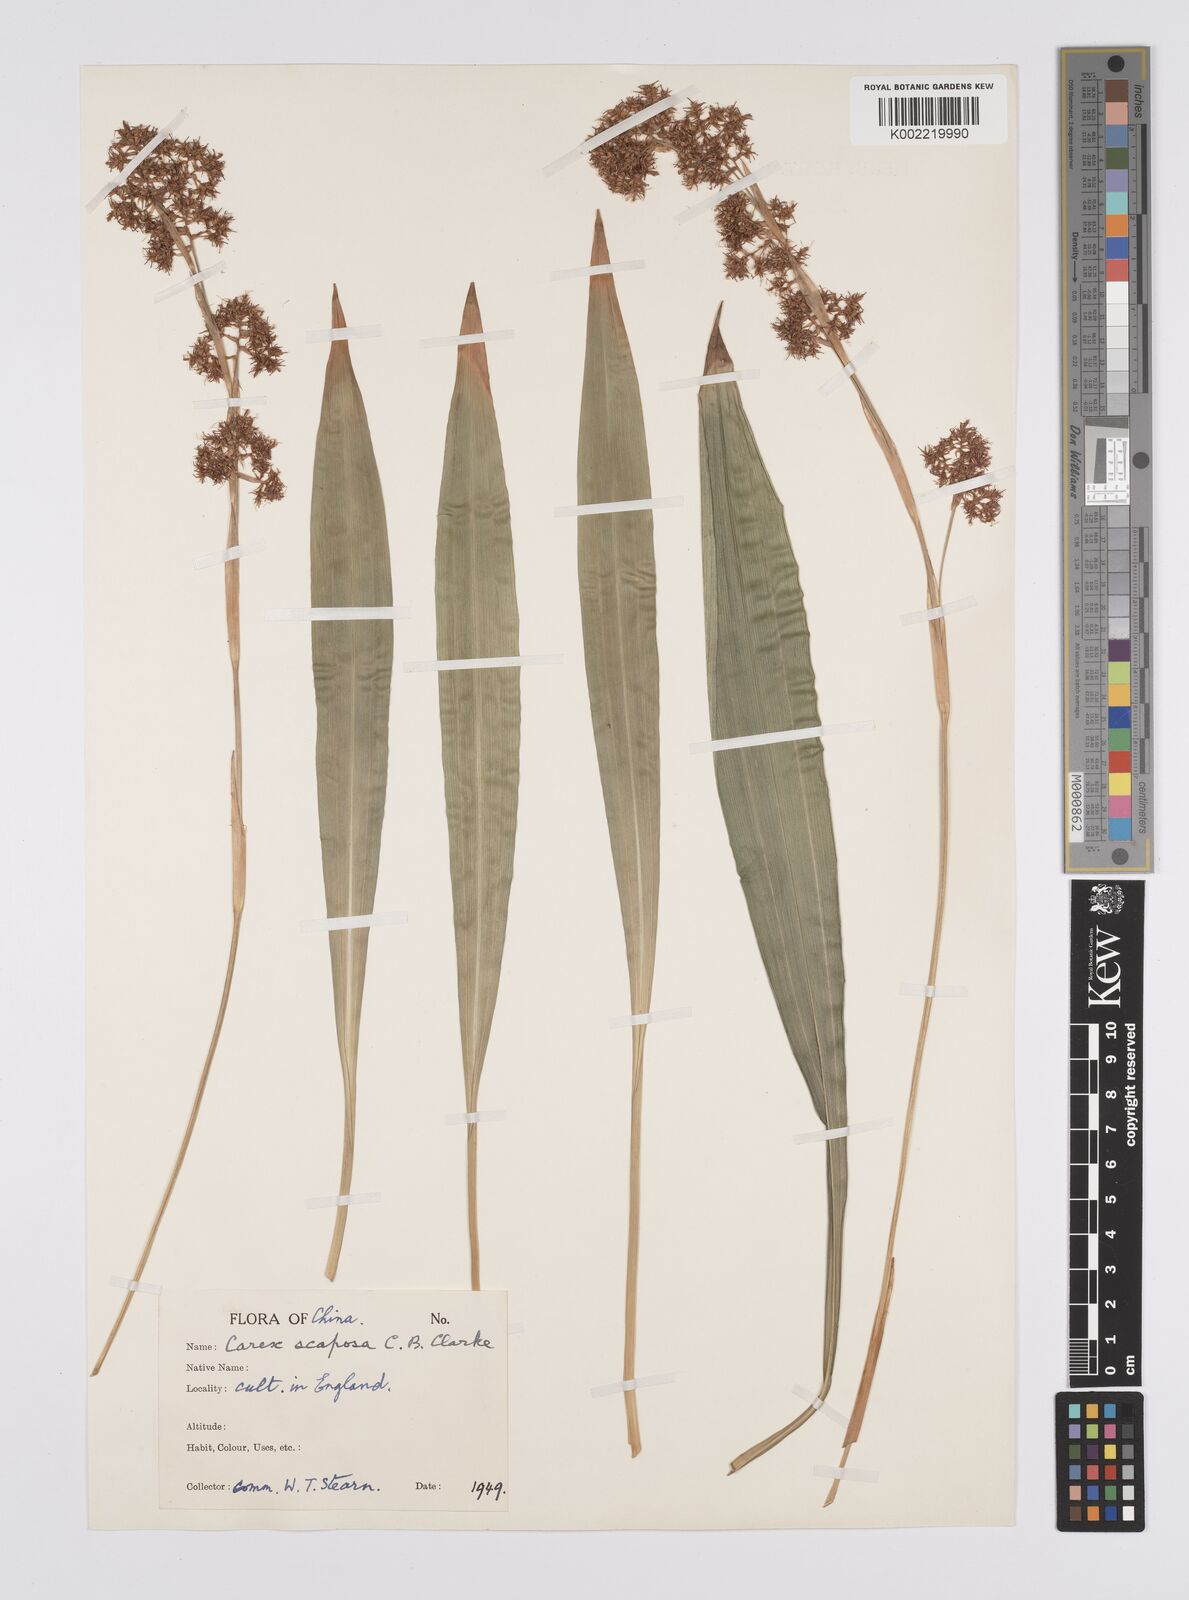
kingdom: Plantae
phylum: Tracheophyta
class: Liliopsida
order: Poales
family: Cyperaceae
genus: Carex
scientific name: Carex scaposa
